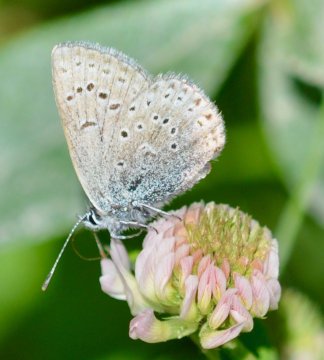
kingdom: Animalia
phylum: Arthropoda
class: Insecta
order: Lepidoptera
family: Lycaenidae
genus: Plebejus
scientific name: Plebejus saepiolus
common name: Greenish Blue
